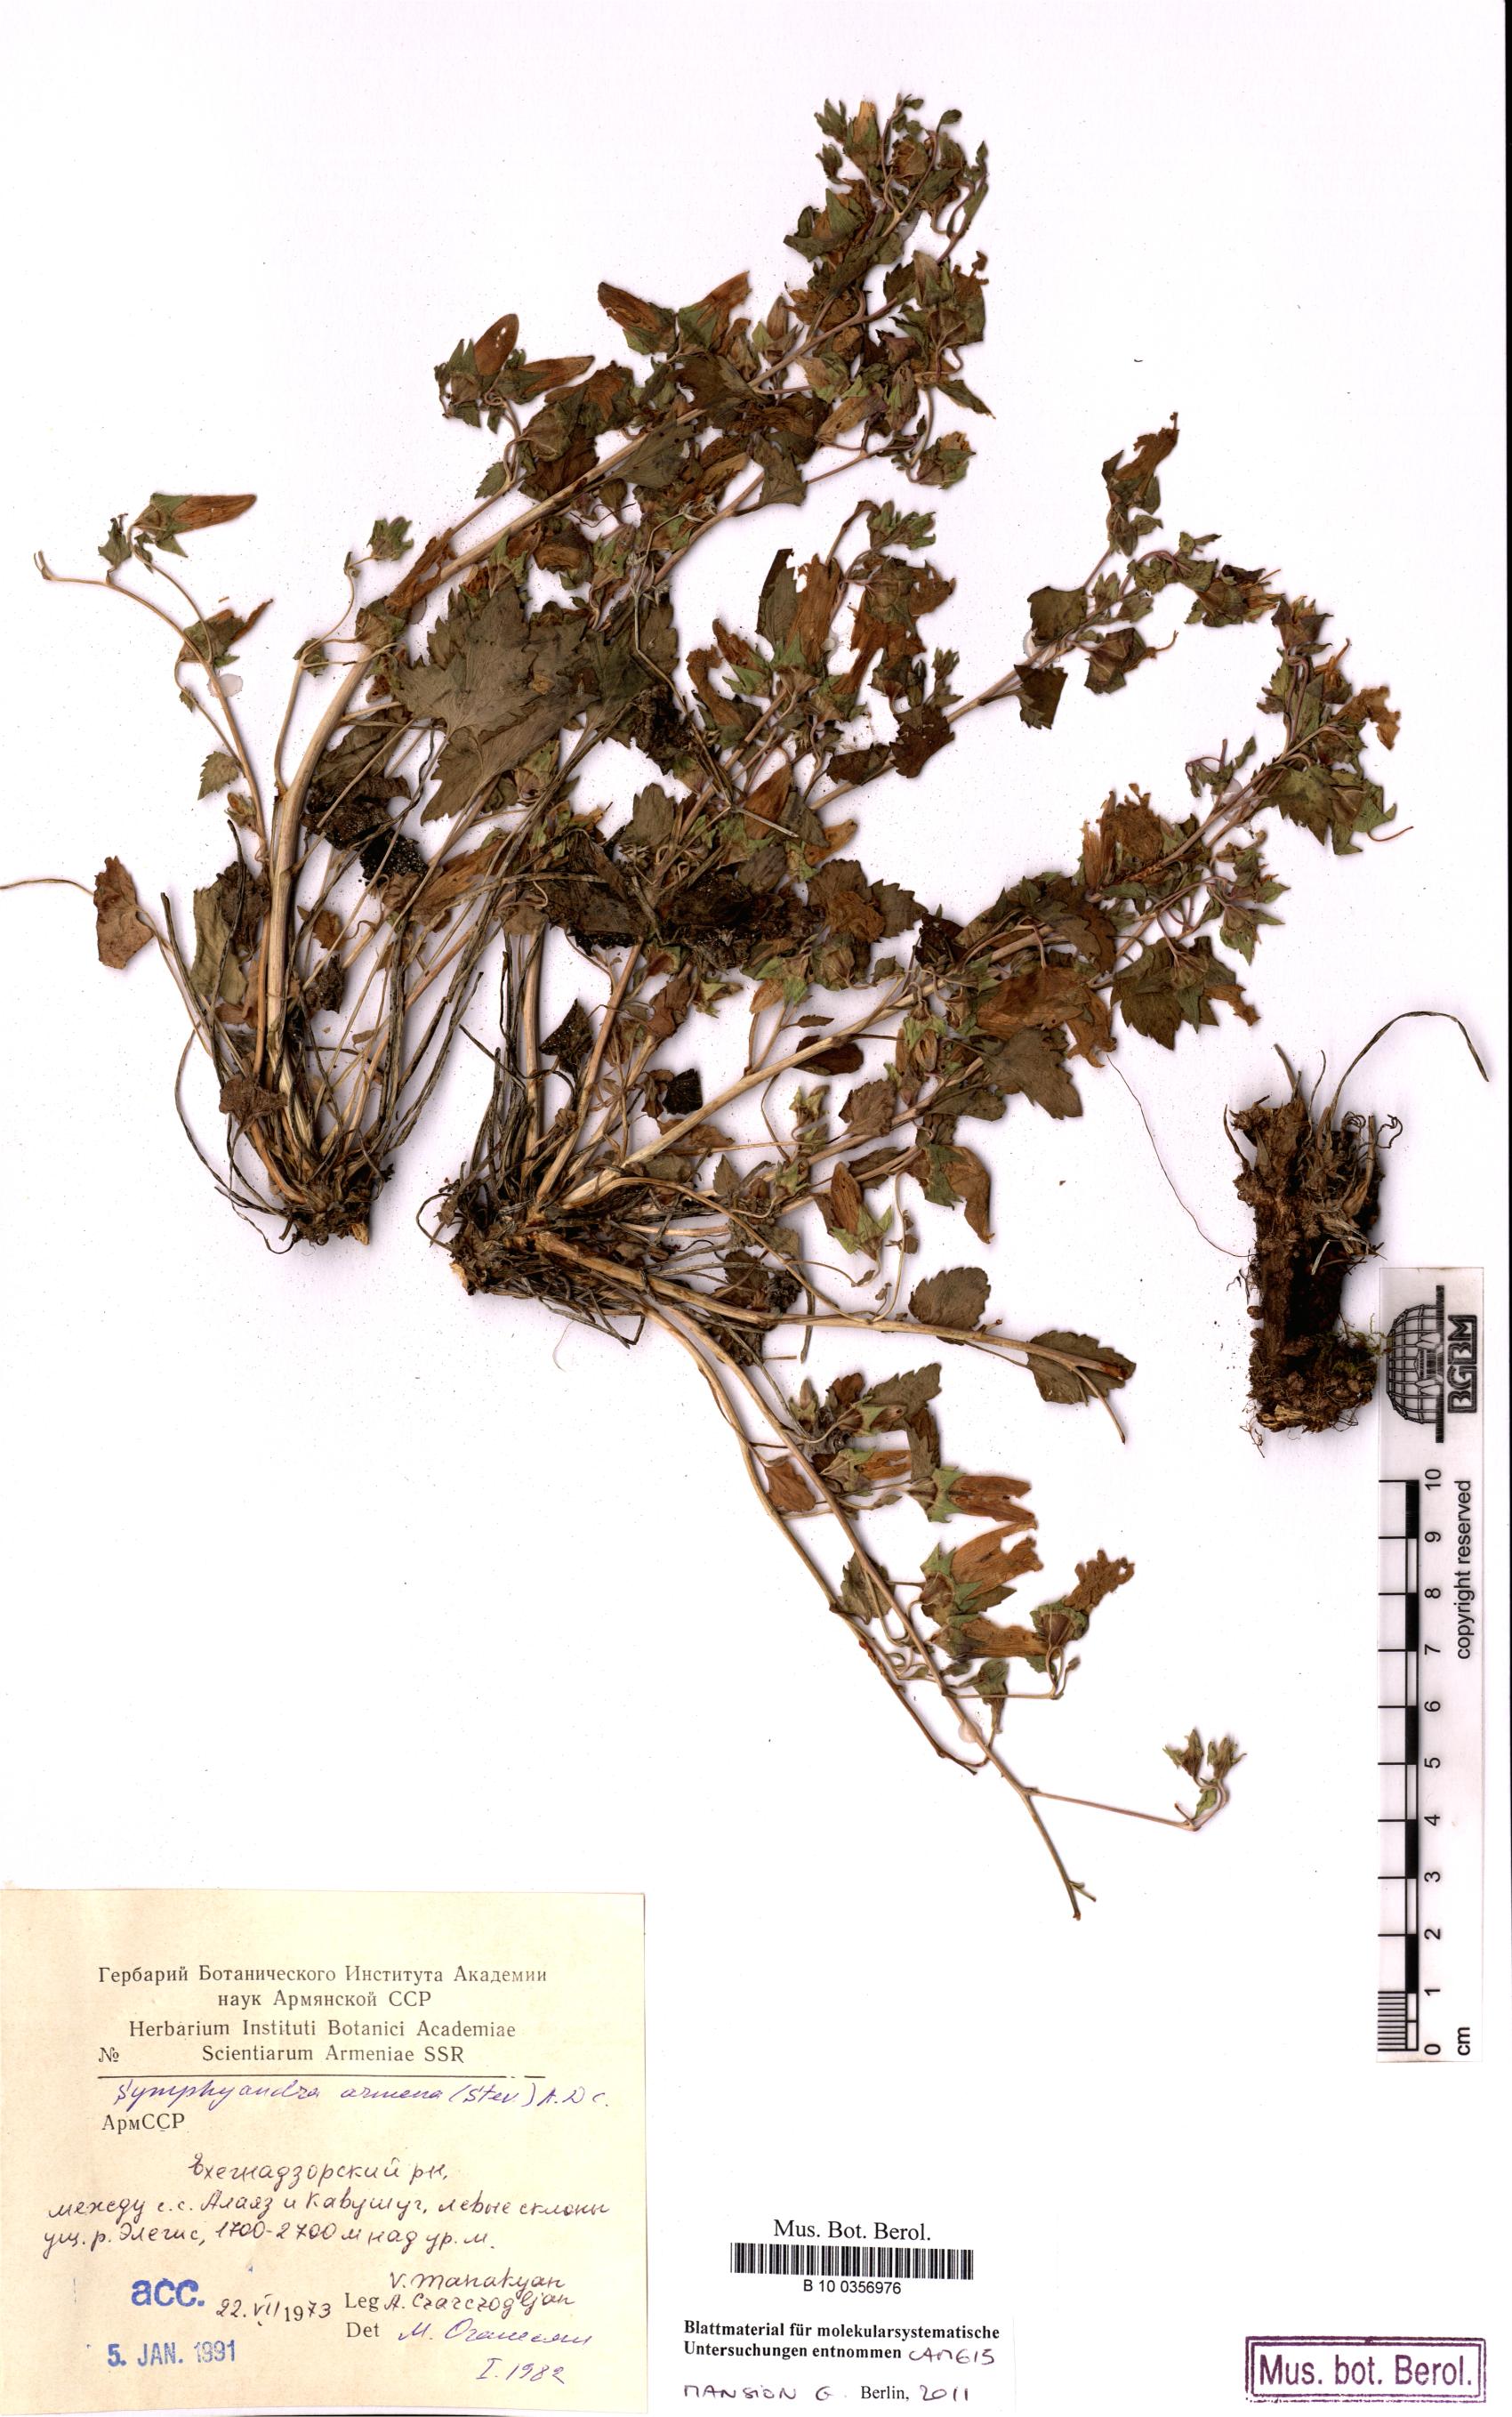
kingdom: Plantae
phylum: Tracheophyta
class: Magnoliopsida
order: Asterales
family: Campanulaceae
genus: Campanula
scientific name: Campanula armena
